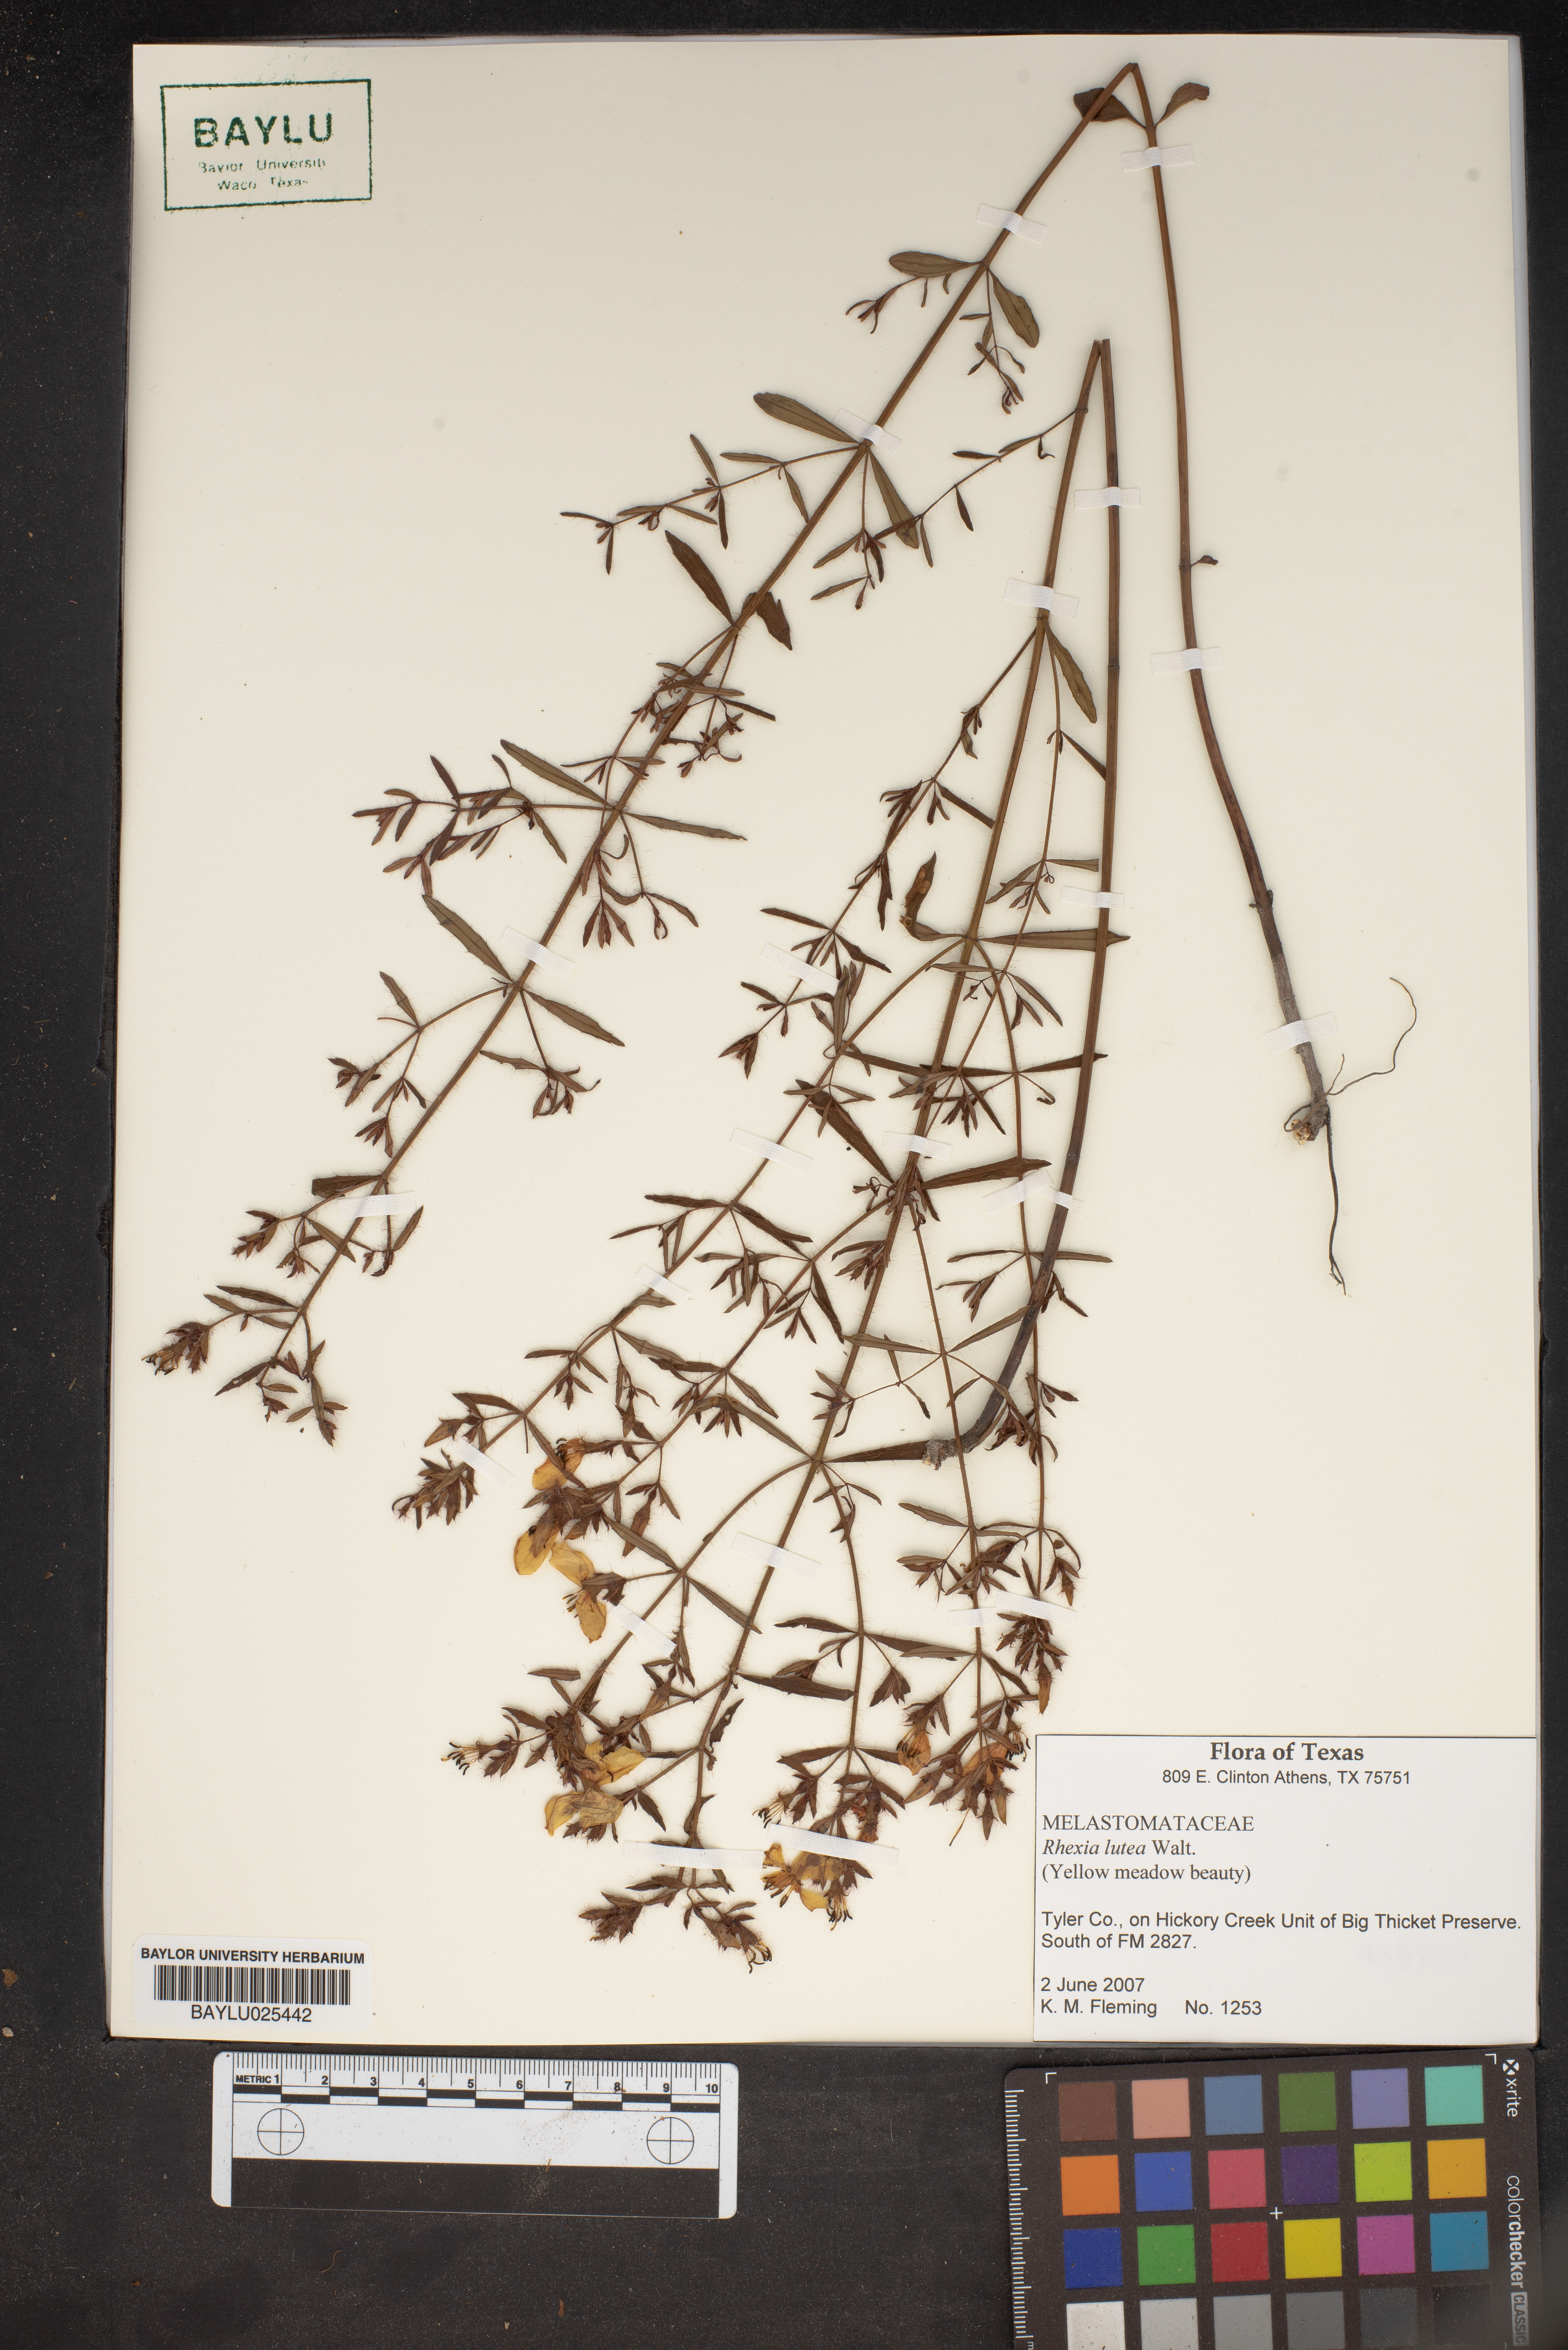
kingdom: Plantae
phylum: Tracheophyta
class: Magnoliopsida
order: Myrtales
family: Melastomataceae
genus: Rhexia
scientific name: Rhexia lutea
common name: Golden meadow-beauty
